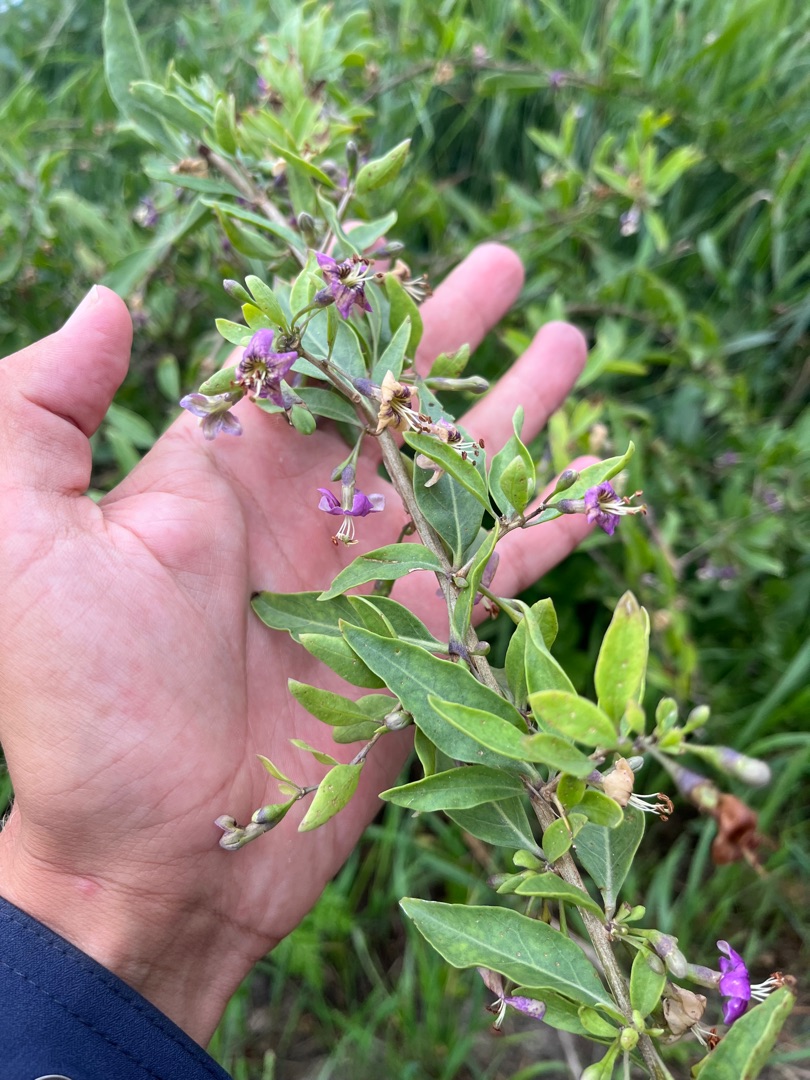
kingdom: Plantae
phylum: Tracheophyta
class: Magnoliopsida
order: Solanales
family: Solanaceae
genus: Lycium
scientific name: Lycium barbarum
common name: Bukketorn
